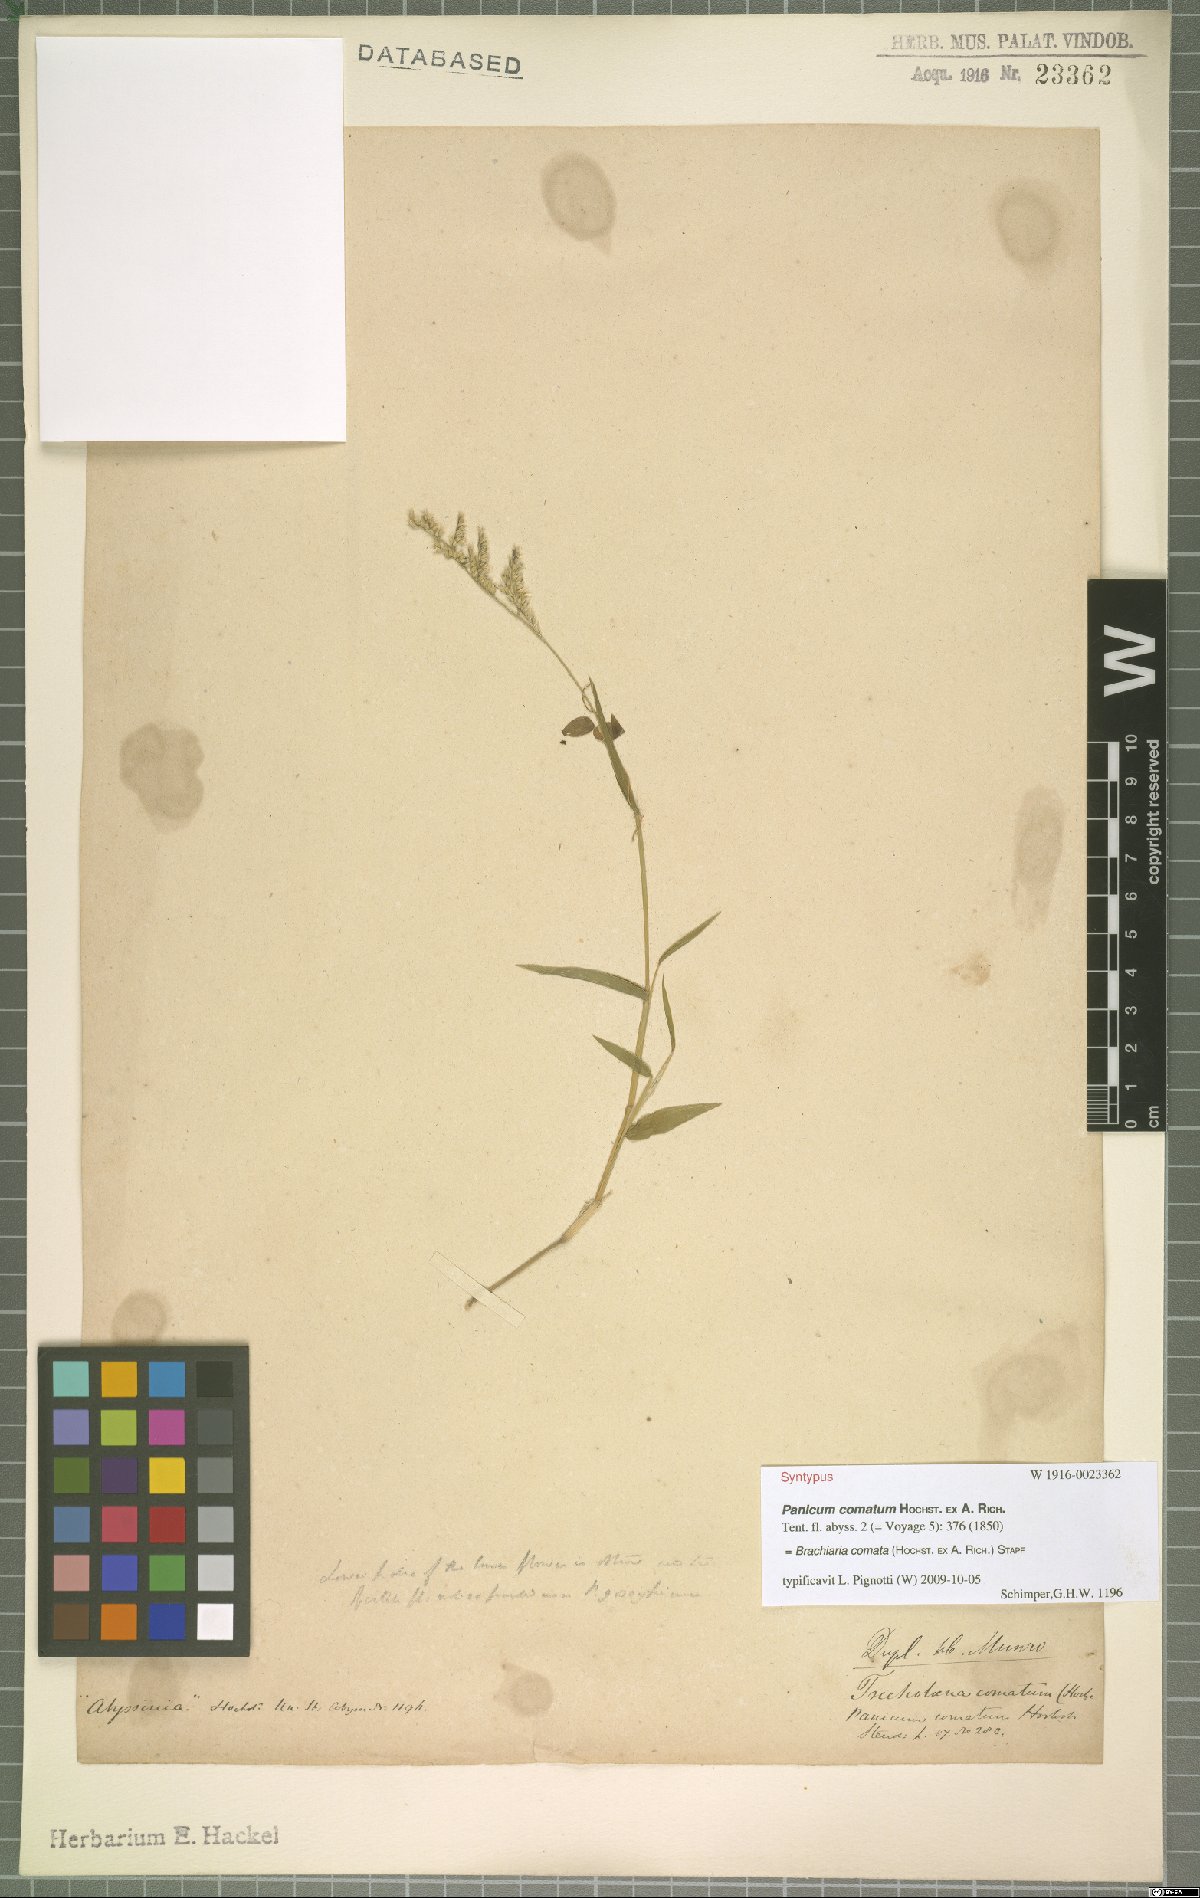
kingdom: Plantae
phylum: Tracheophyta
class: Liliopsida
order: Poales
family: Poaceae
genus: Urochloa
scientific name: Urochloa comata
